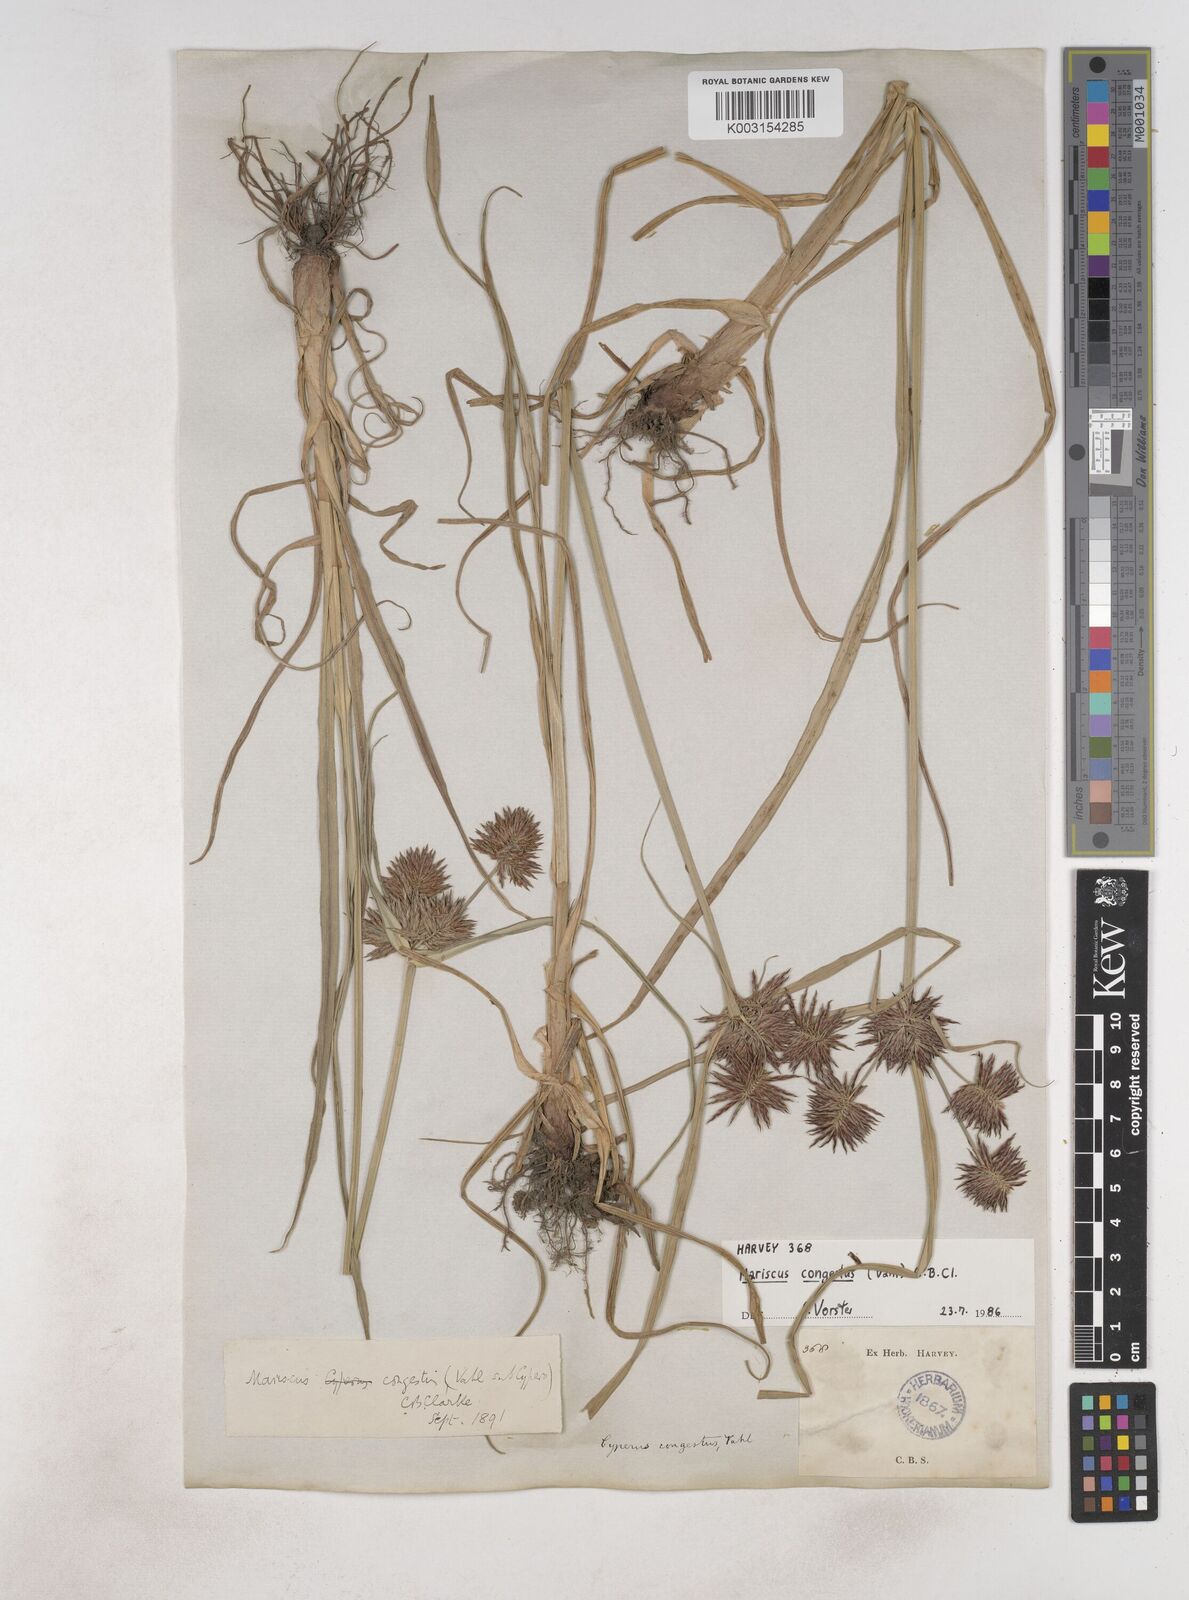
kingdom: Plantae
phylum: Tracheophyta
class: Liliopsida
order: Poales
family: Cyperaceae
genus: Cyperus
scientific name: Cyperus congestus
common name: Dense flat sedge
